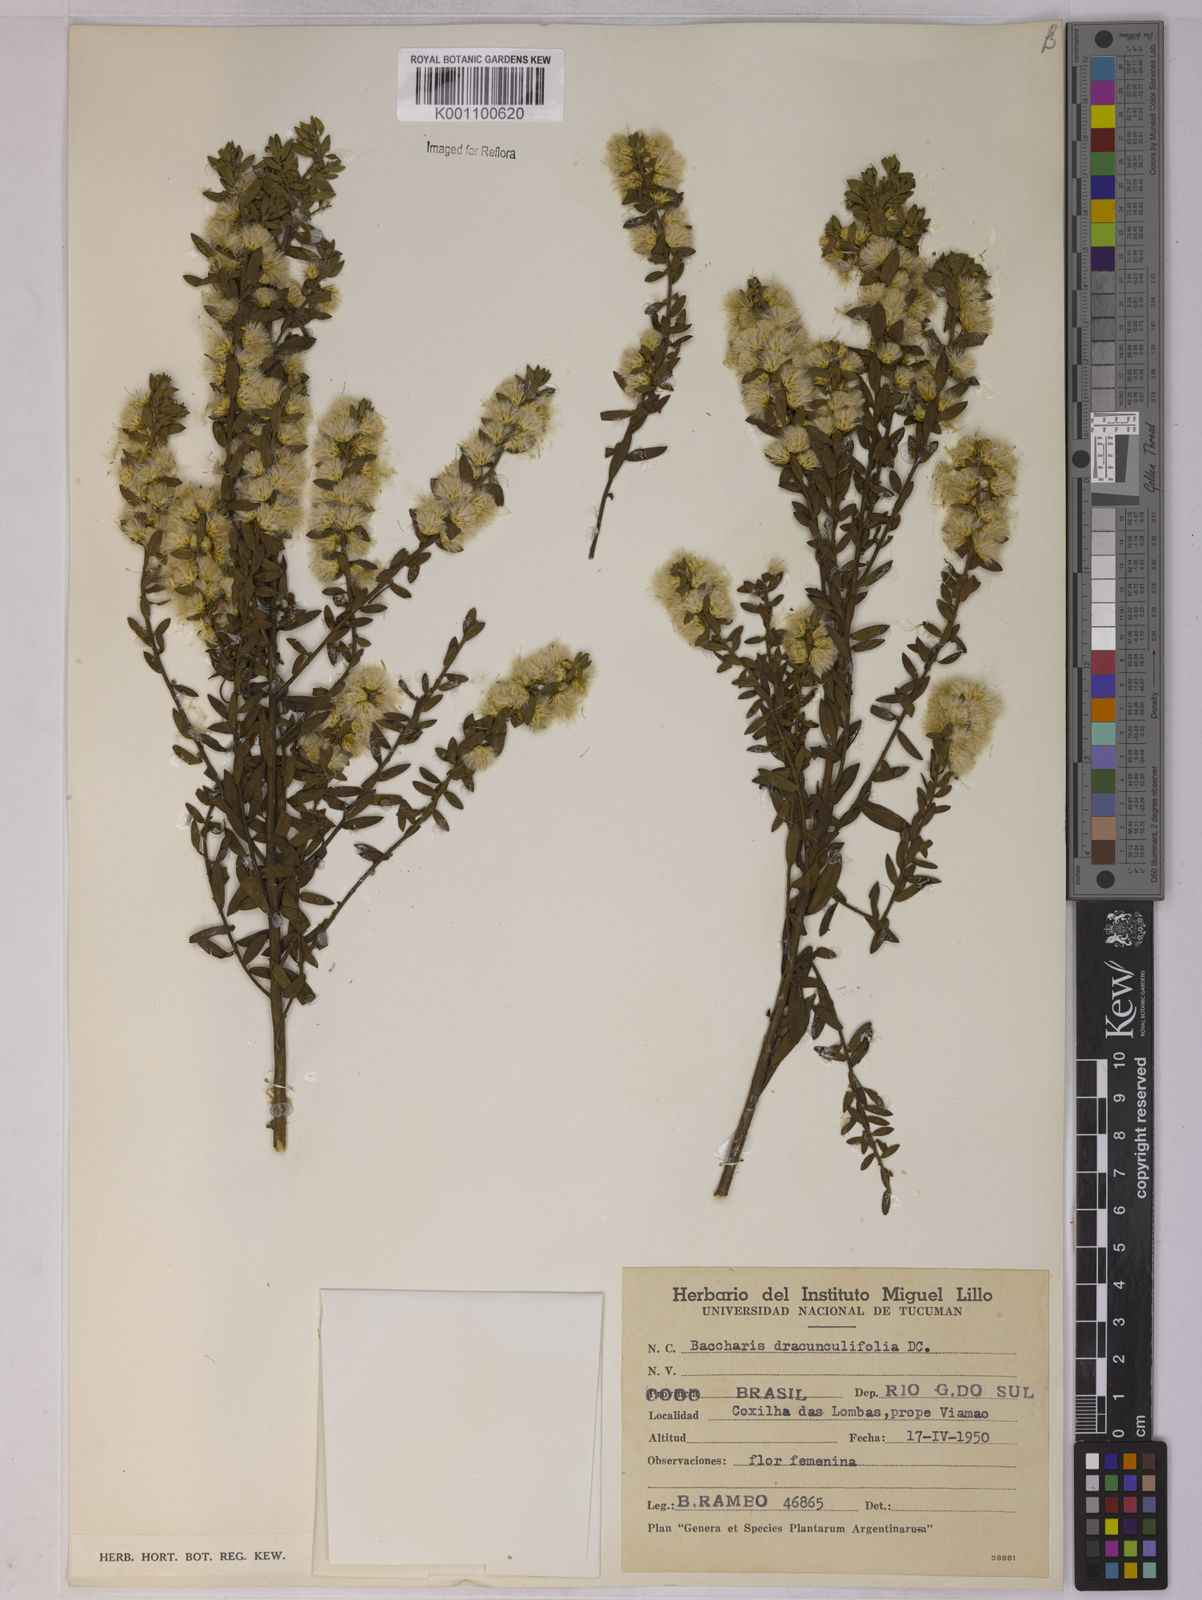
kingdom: Plantae
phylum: Tracheophyta
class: Magnoliopsida
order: Asterales
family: Asteraceae
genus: Baccharis
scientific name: Baccharis dracunculifolia
